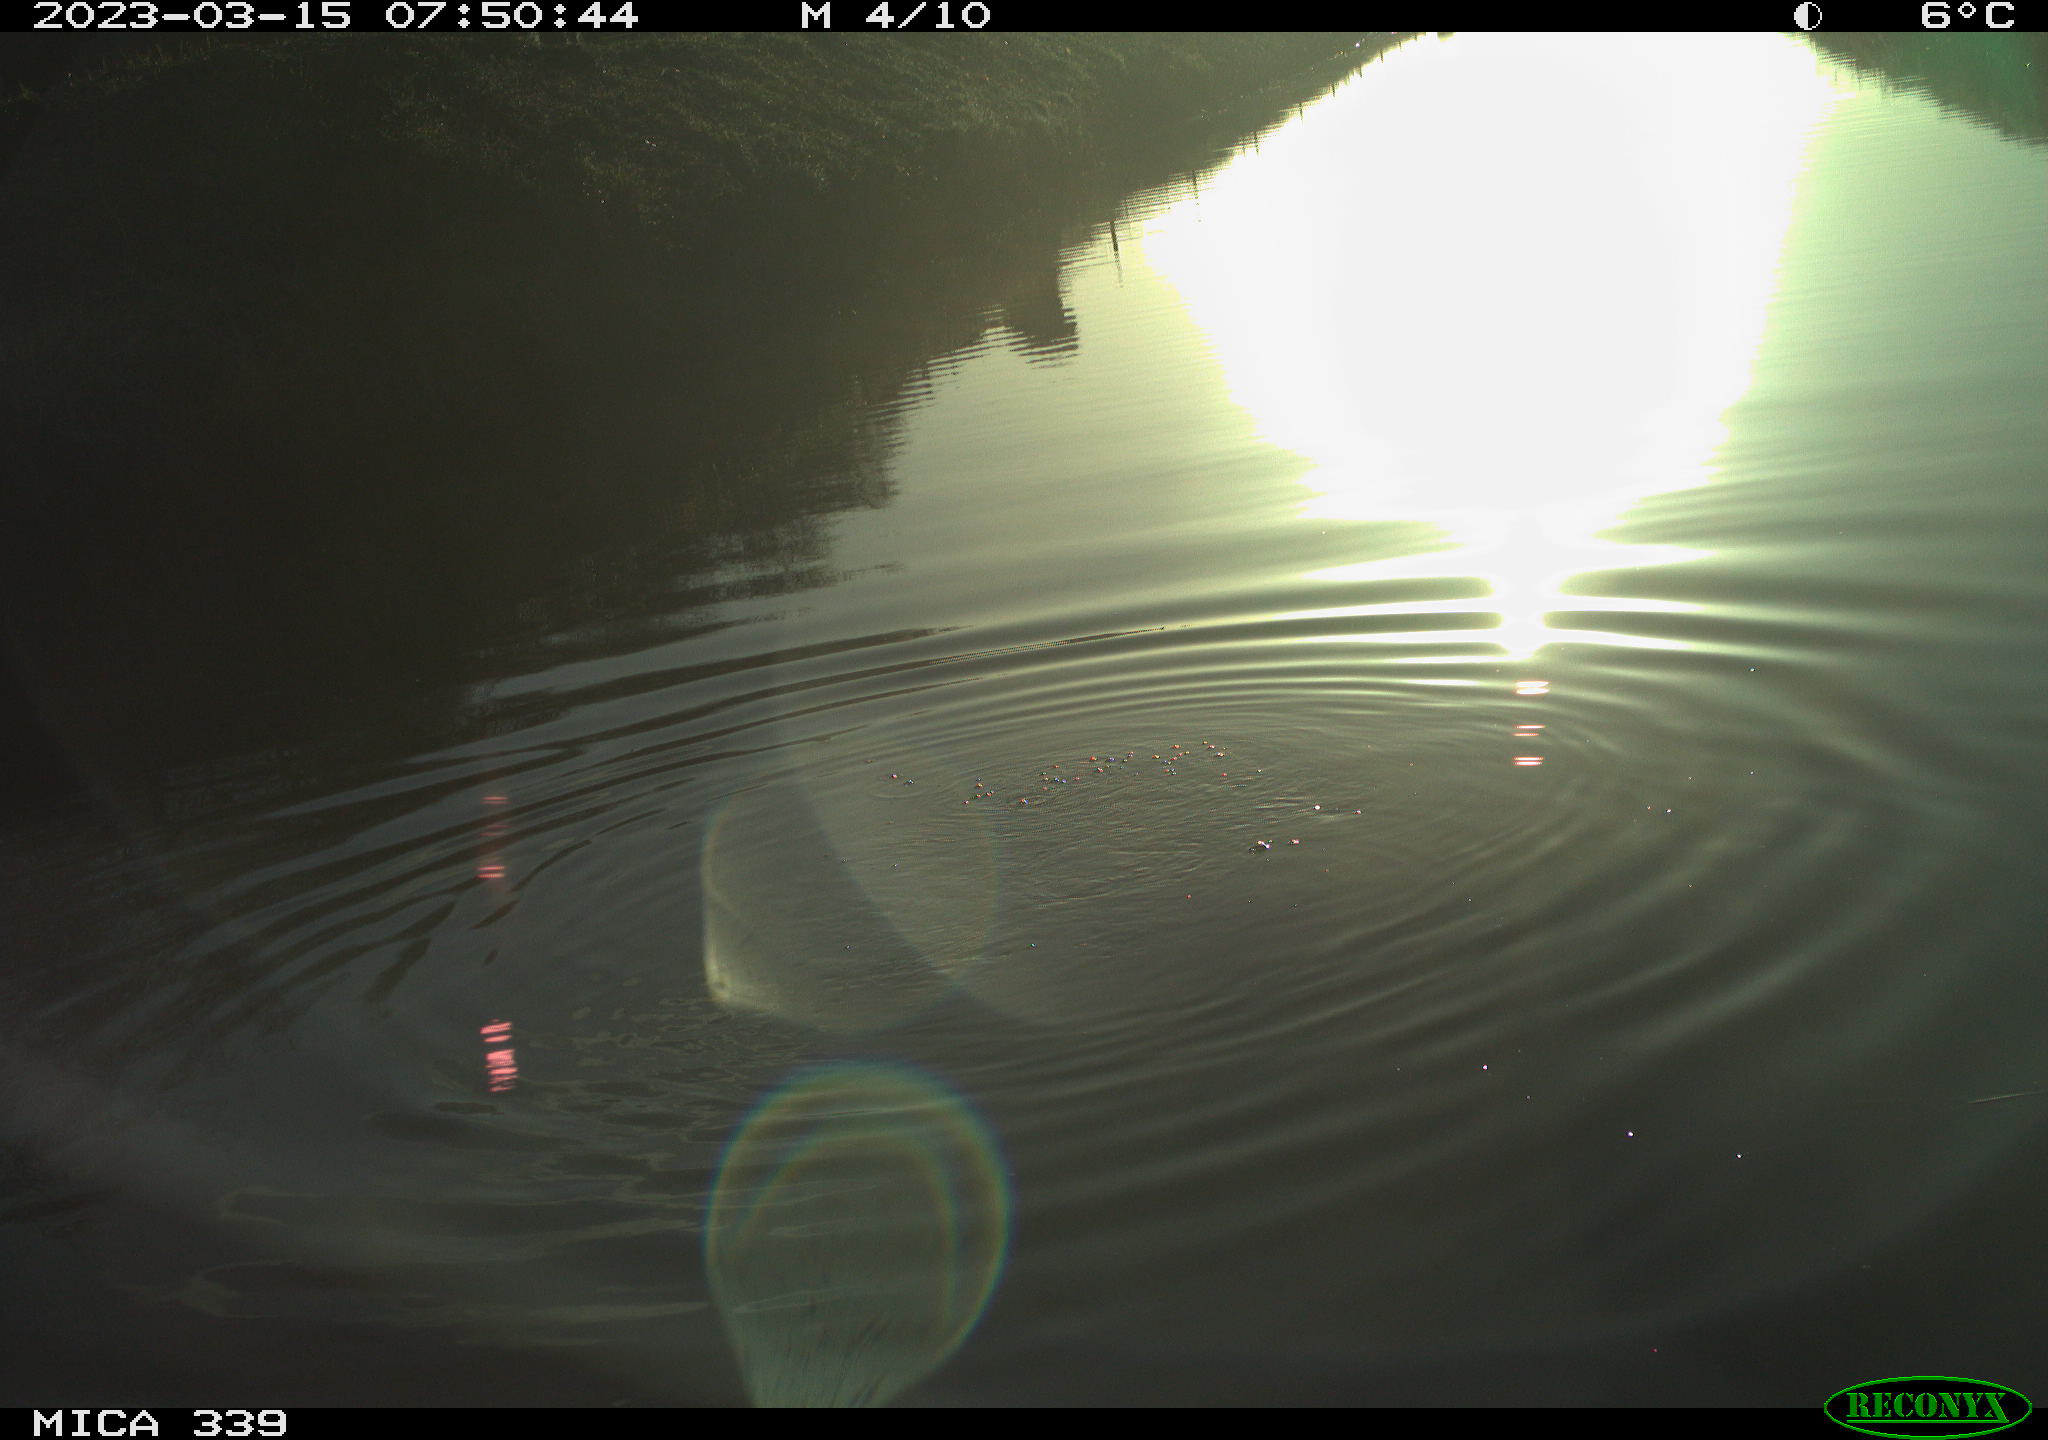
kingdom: Animalia
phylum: Chordata
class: Aves
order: Suliformes
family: Phalacrocoracidae
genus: Phalacrocorax
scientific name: Phalacrocorax carbo
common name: Great cormorant
